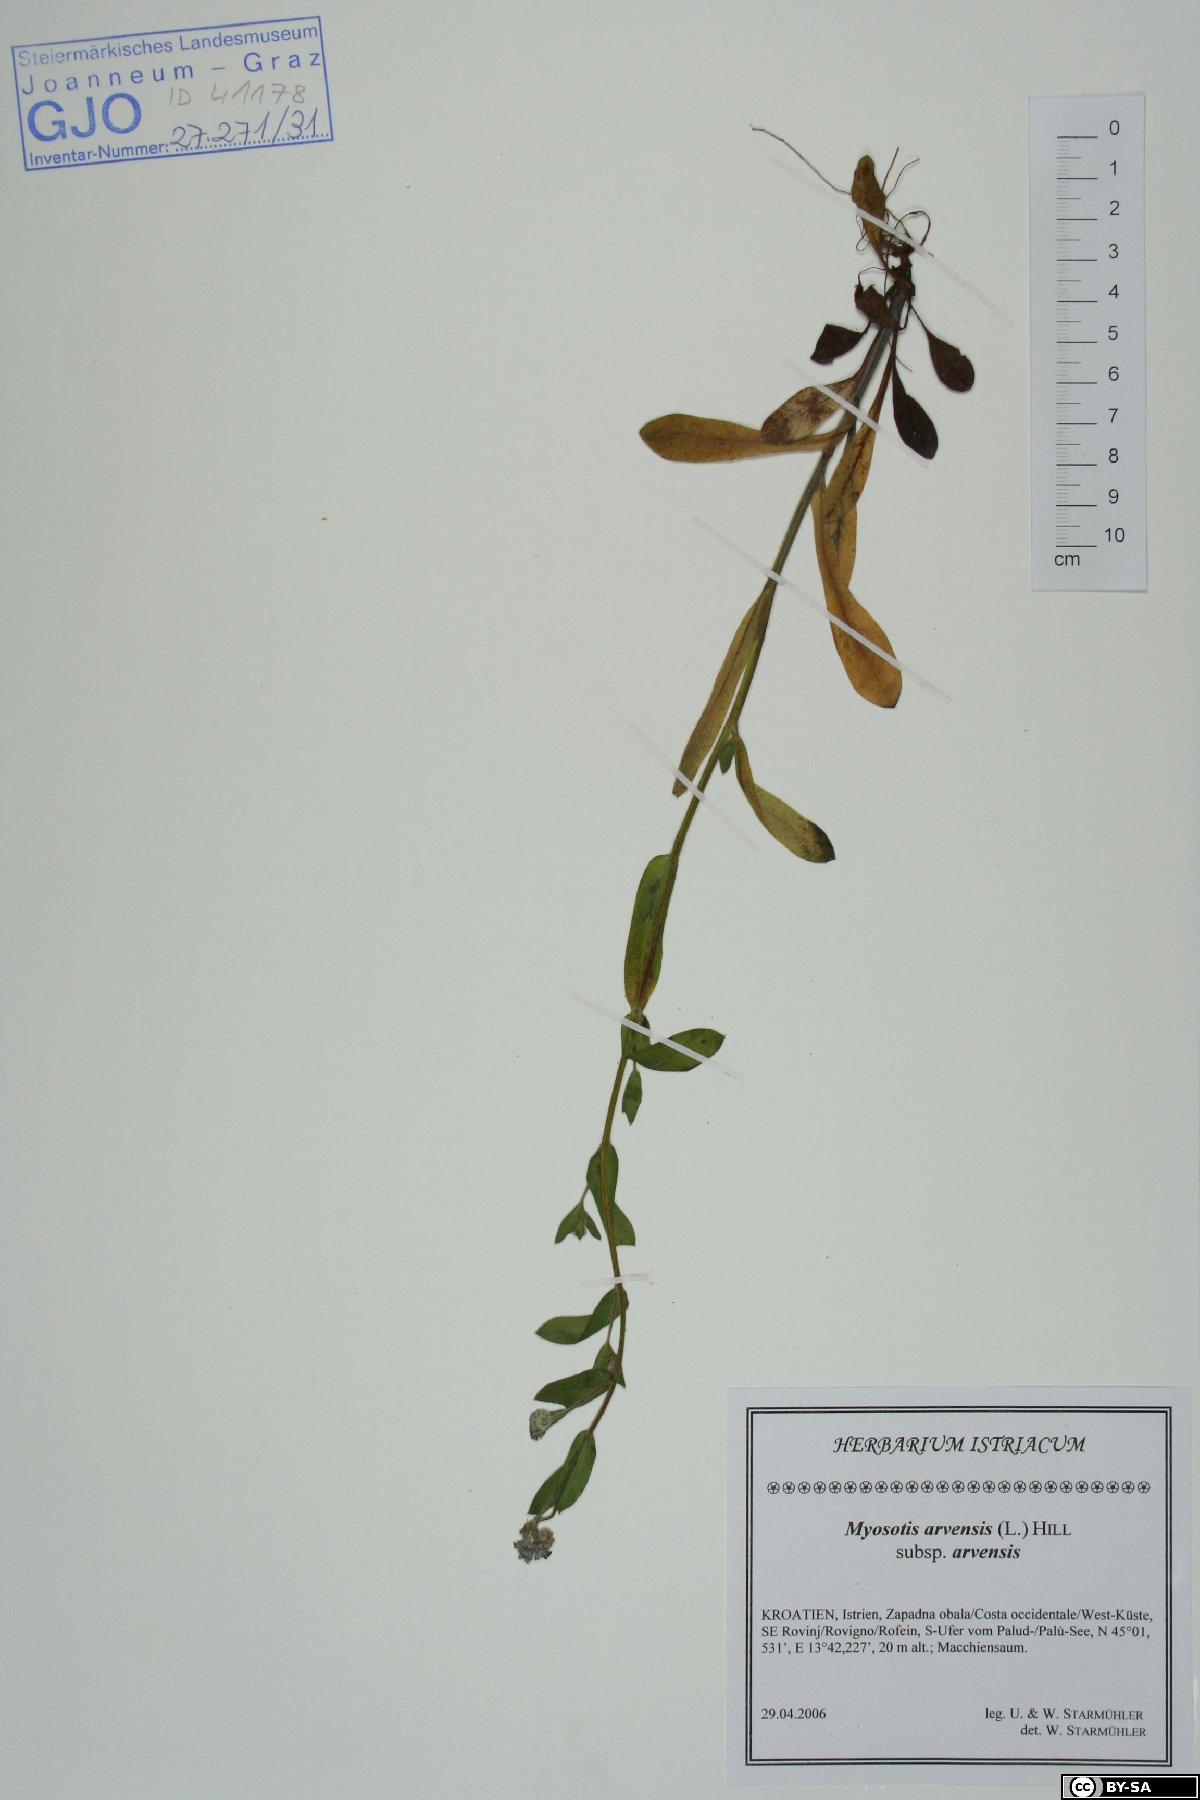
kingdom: Plantae
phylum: Tracheophyta
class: Magnoliopsida
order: Boraginales
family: Boraginaceae
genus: Myosotis
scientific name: Myosotis arvensis
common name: Field forget-me-not
